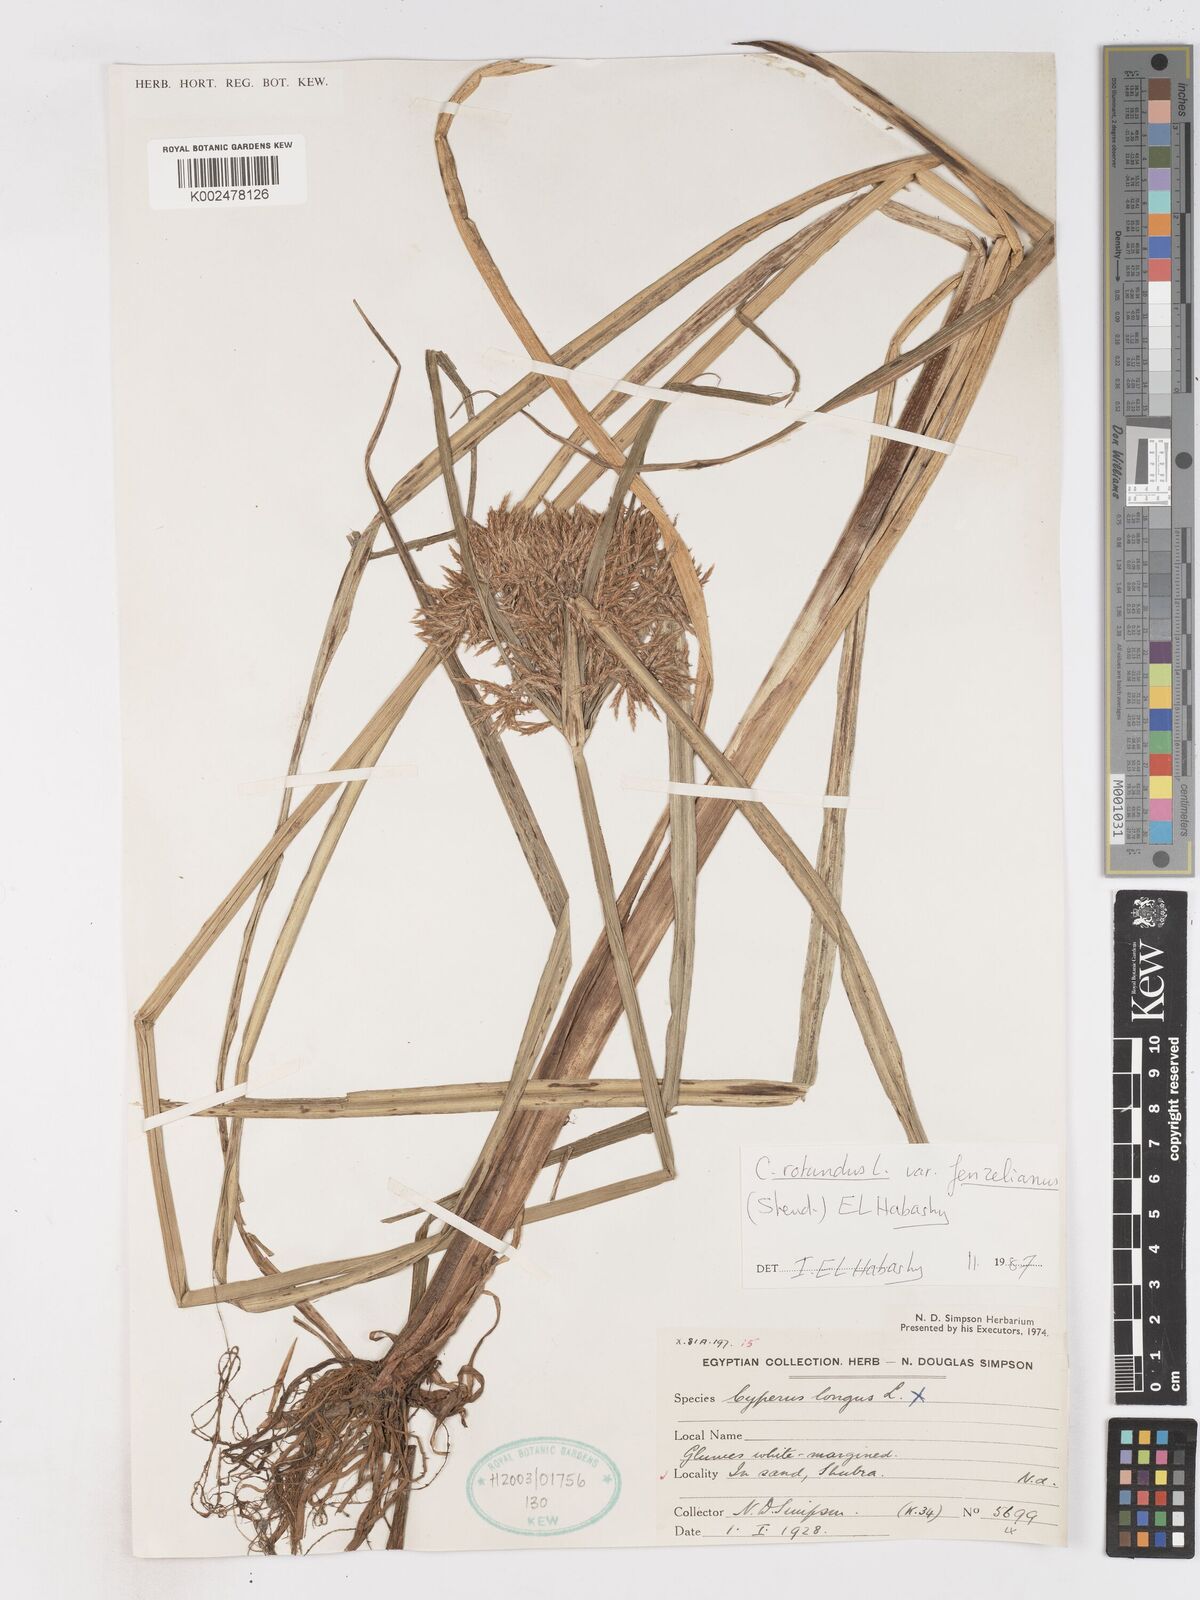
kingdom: Plantae
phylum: Tracheophyta
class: Liliopsida
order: Poales
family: Cyperaceae
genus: Cyperus
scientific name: Cyperus rotundus
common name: Nutgrass
